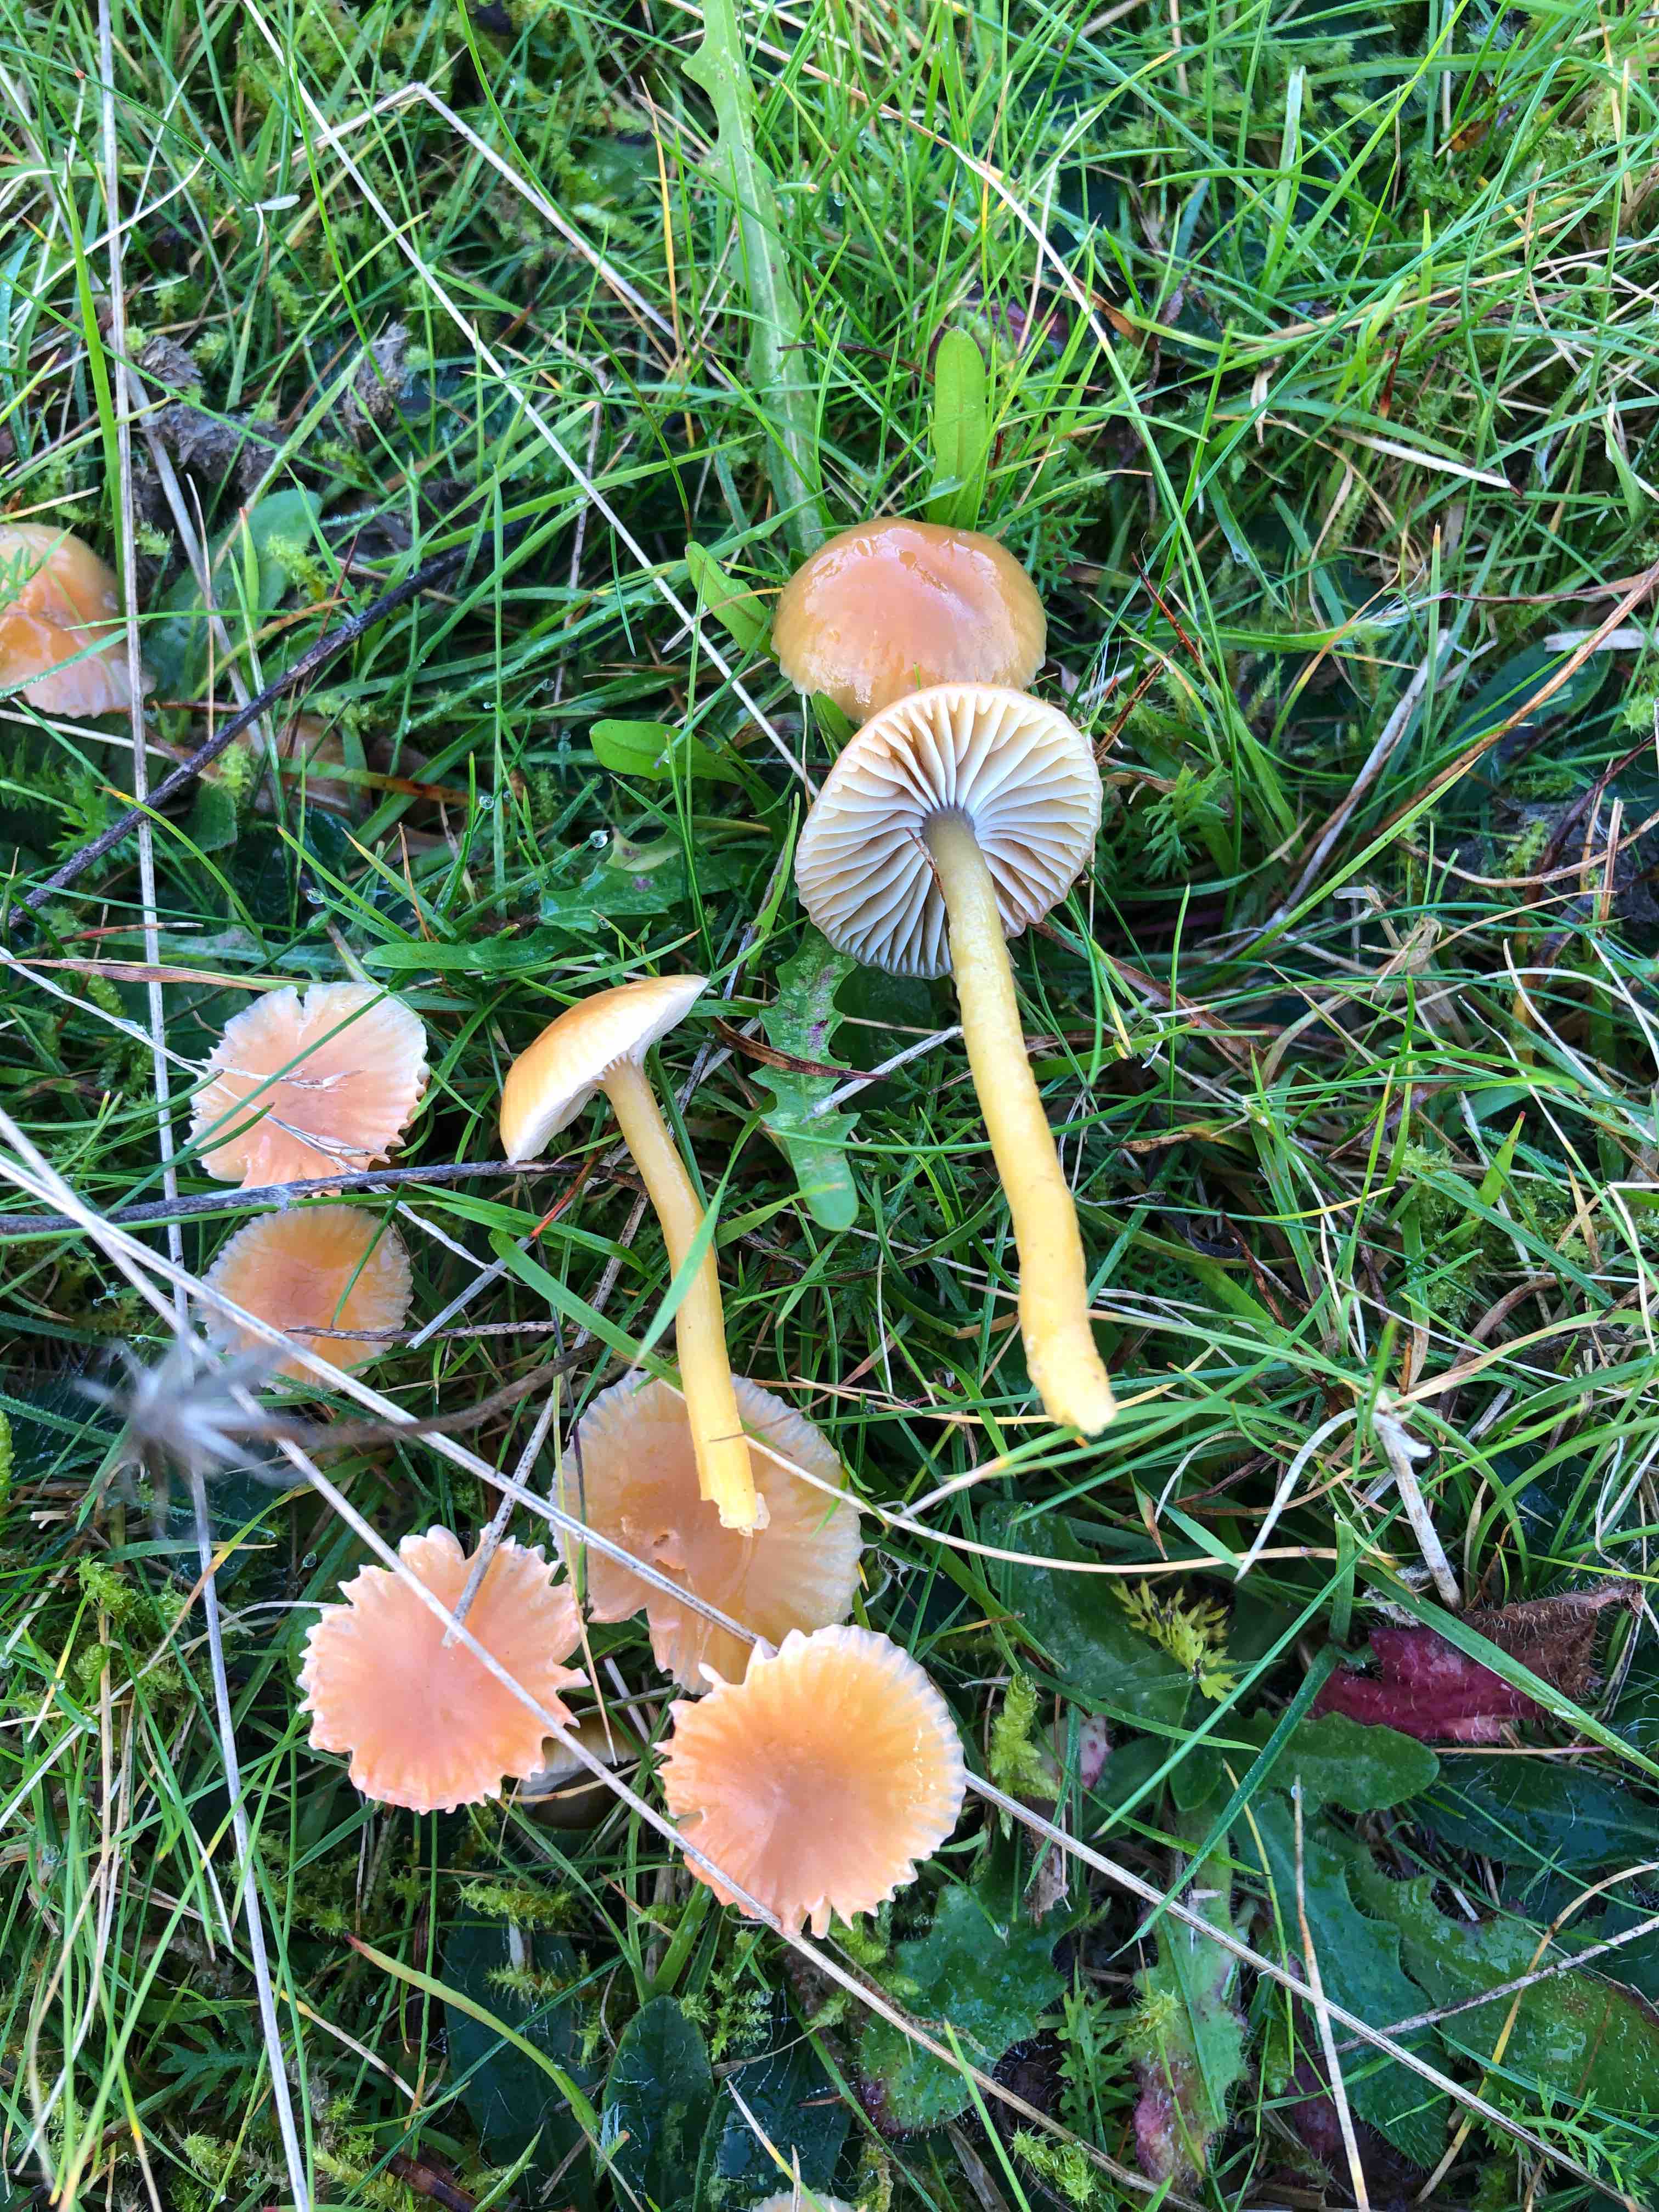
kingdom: Fungi
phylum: Basidiomycota
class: Agaricomycetes
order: Agaricales
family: Hygrophoraceae
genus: Gliophorus
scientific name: Gliophorus laetus
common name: brusk-vokshat
